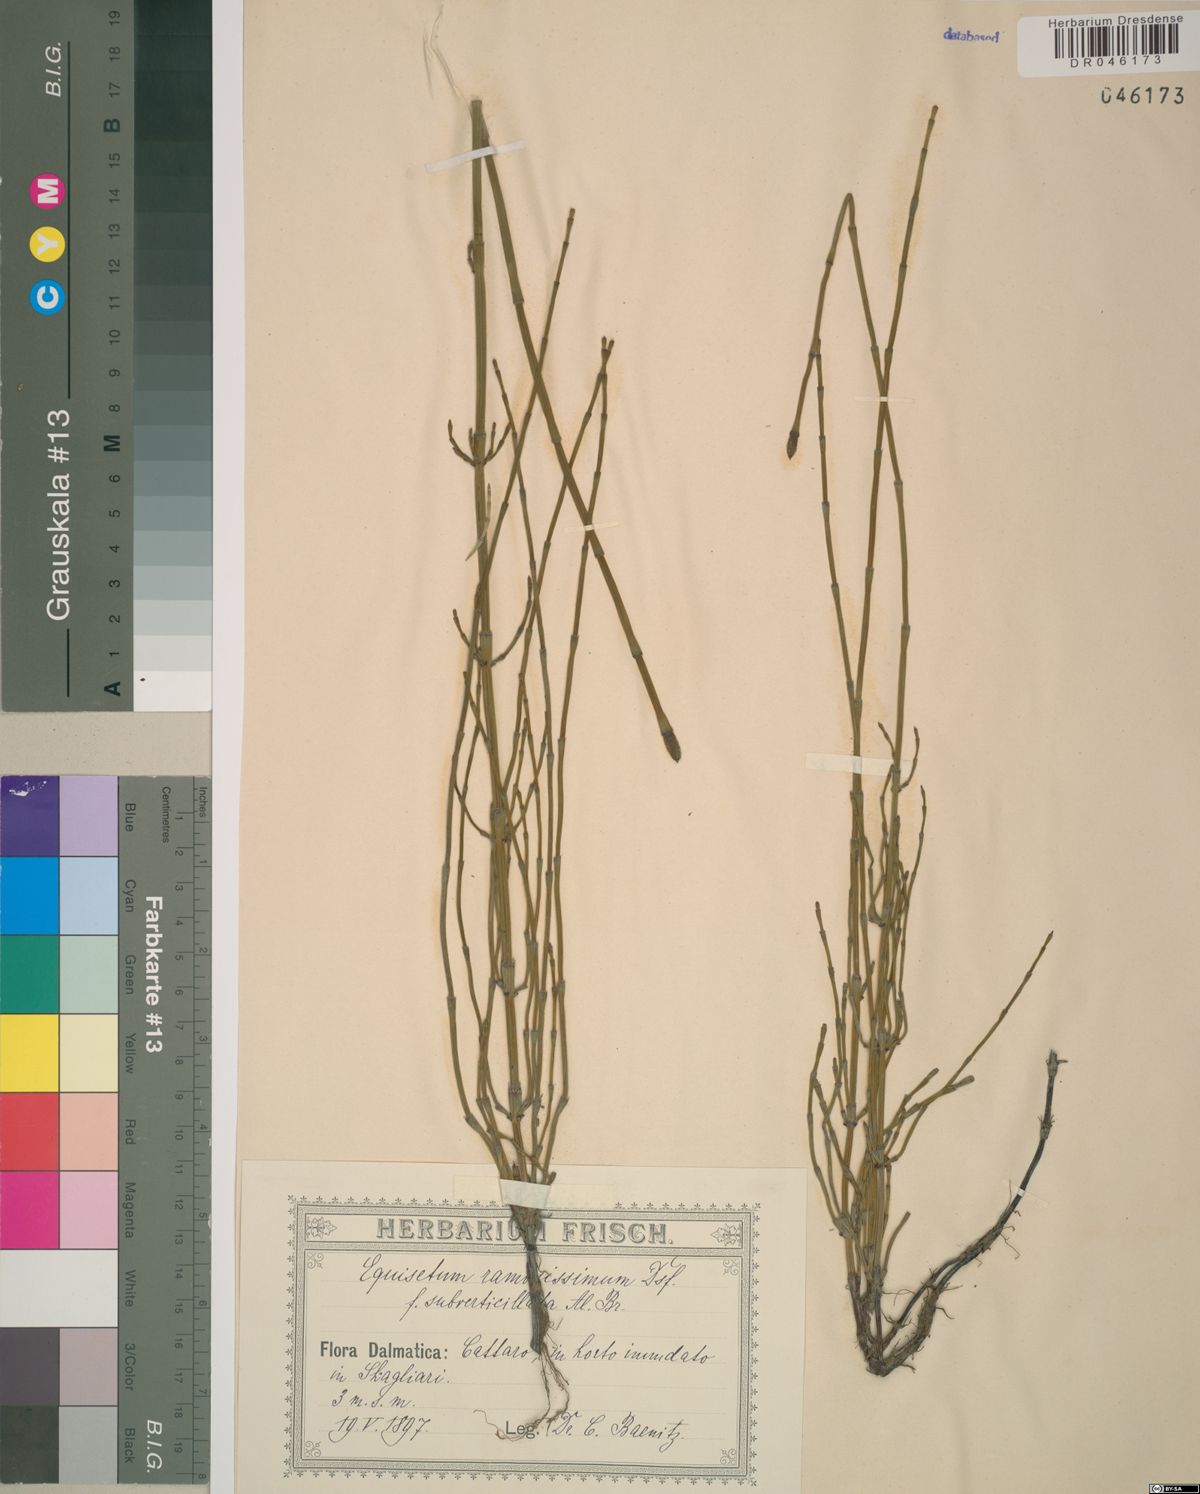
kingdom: Plantae
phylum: Tracheophyta
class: Polypodiopsida
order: Equisetales
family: Equisetaceae
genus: Equisetum
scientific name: Equisetum ramosissimum
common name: Branched horsetail
